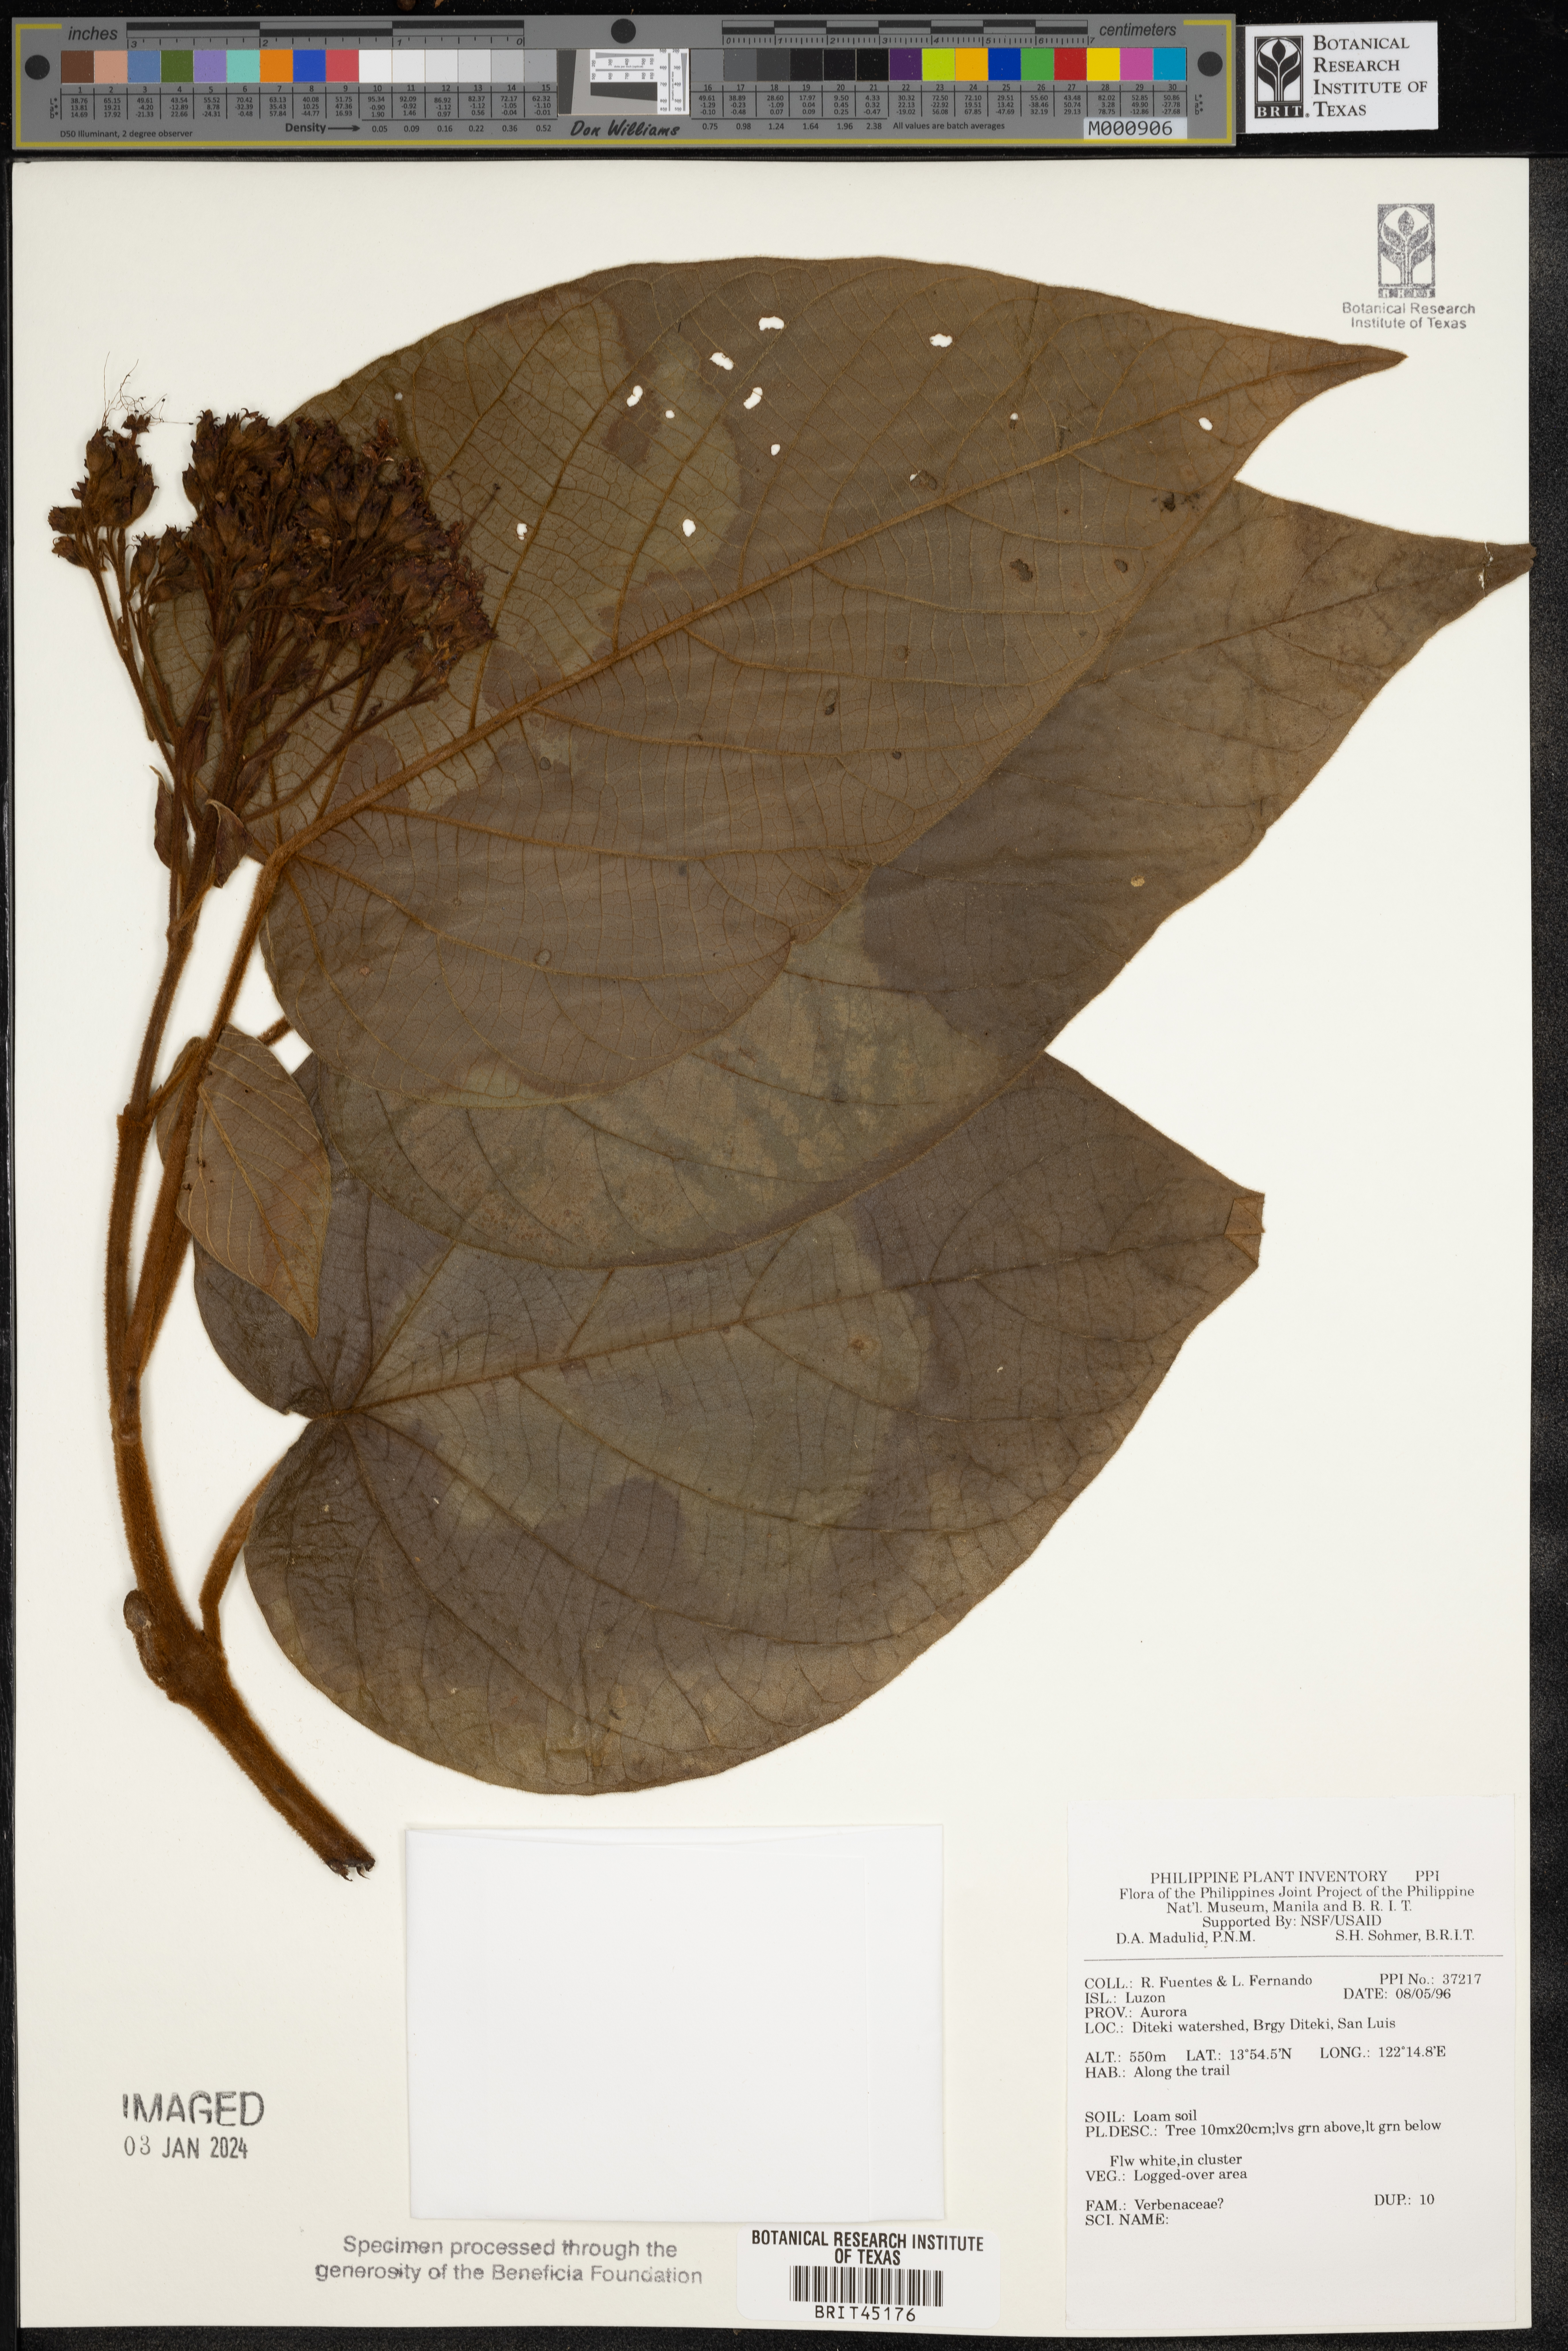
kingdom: Plantae
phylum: Tracheophyta
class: Magnoliopsida
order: Lamiales
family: Verbenaceae
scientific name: Verbenaceae
